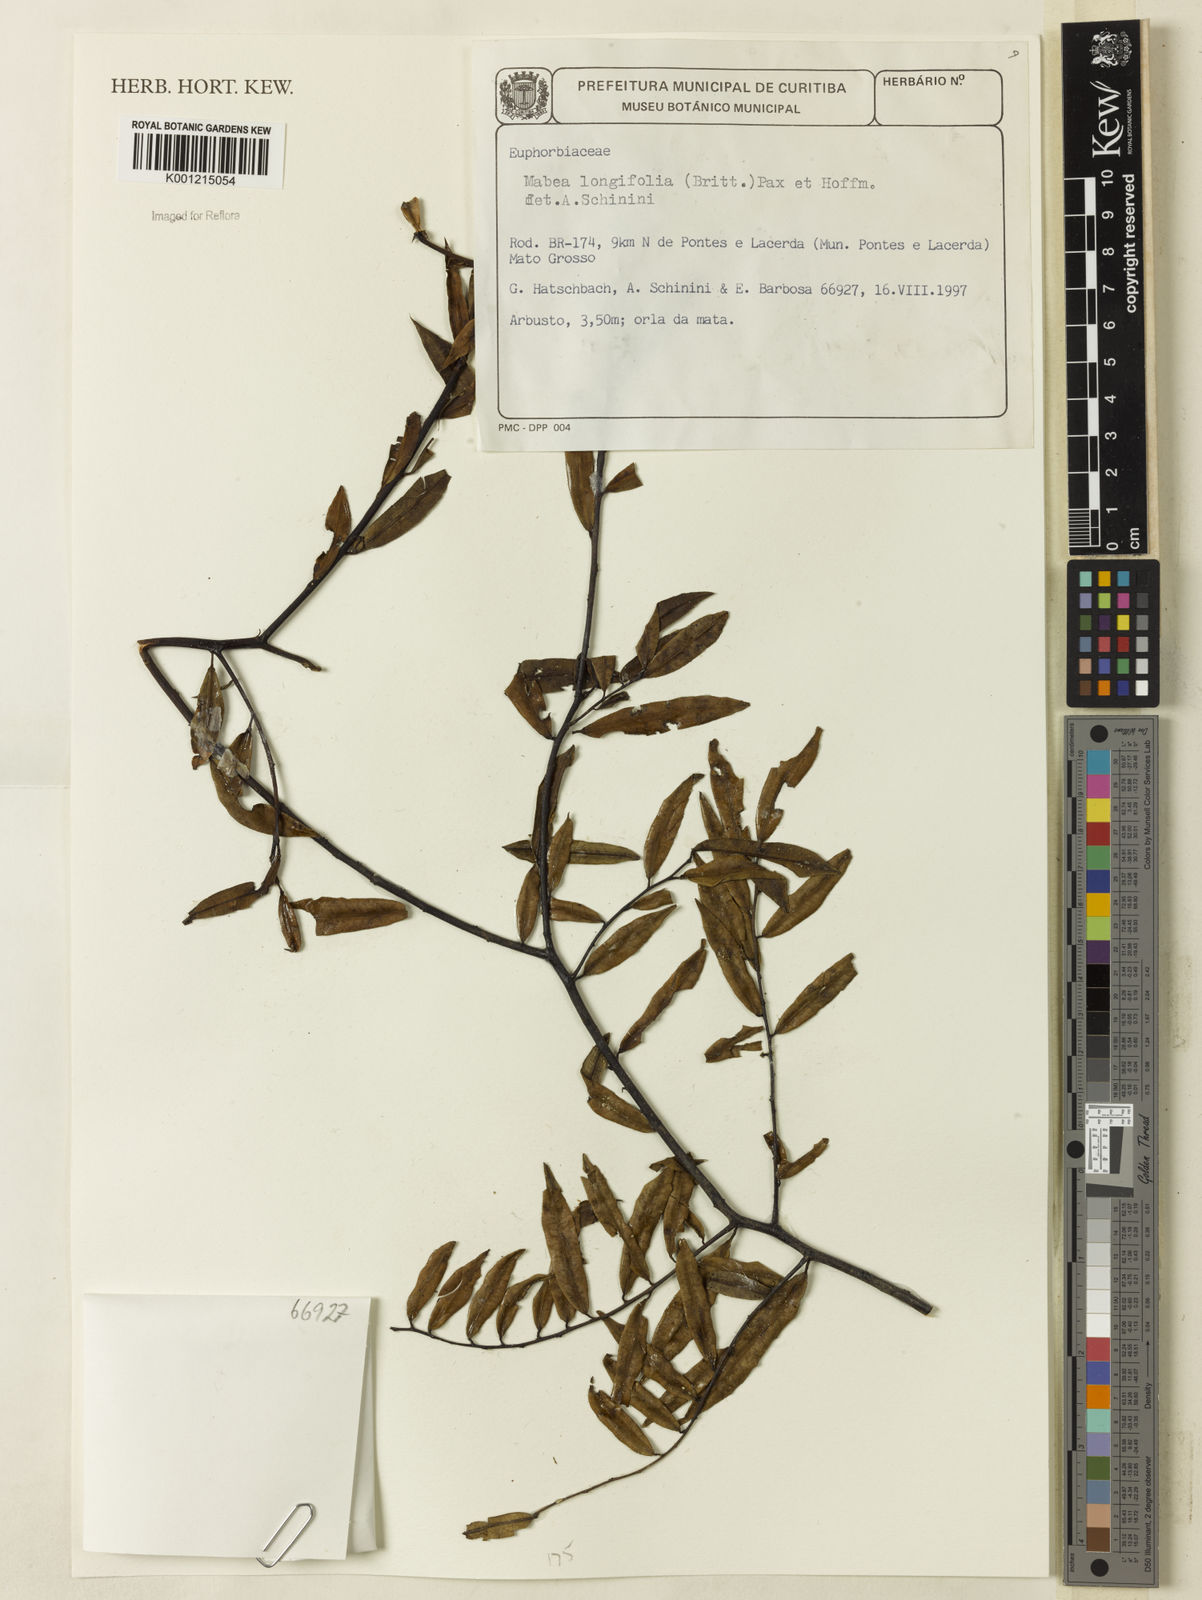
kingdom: Plantae
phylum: Tracheophyta
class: Magnoliopsida
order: Malpighiales
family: Euphorbiaceae
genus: Mabea
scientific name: Mabea angustifolia
